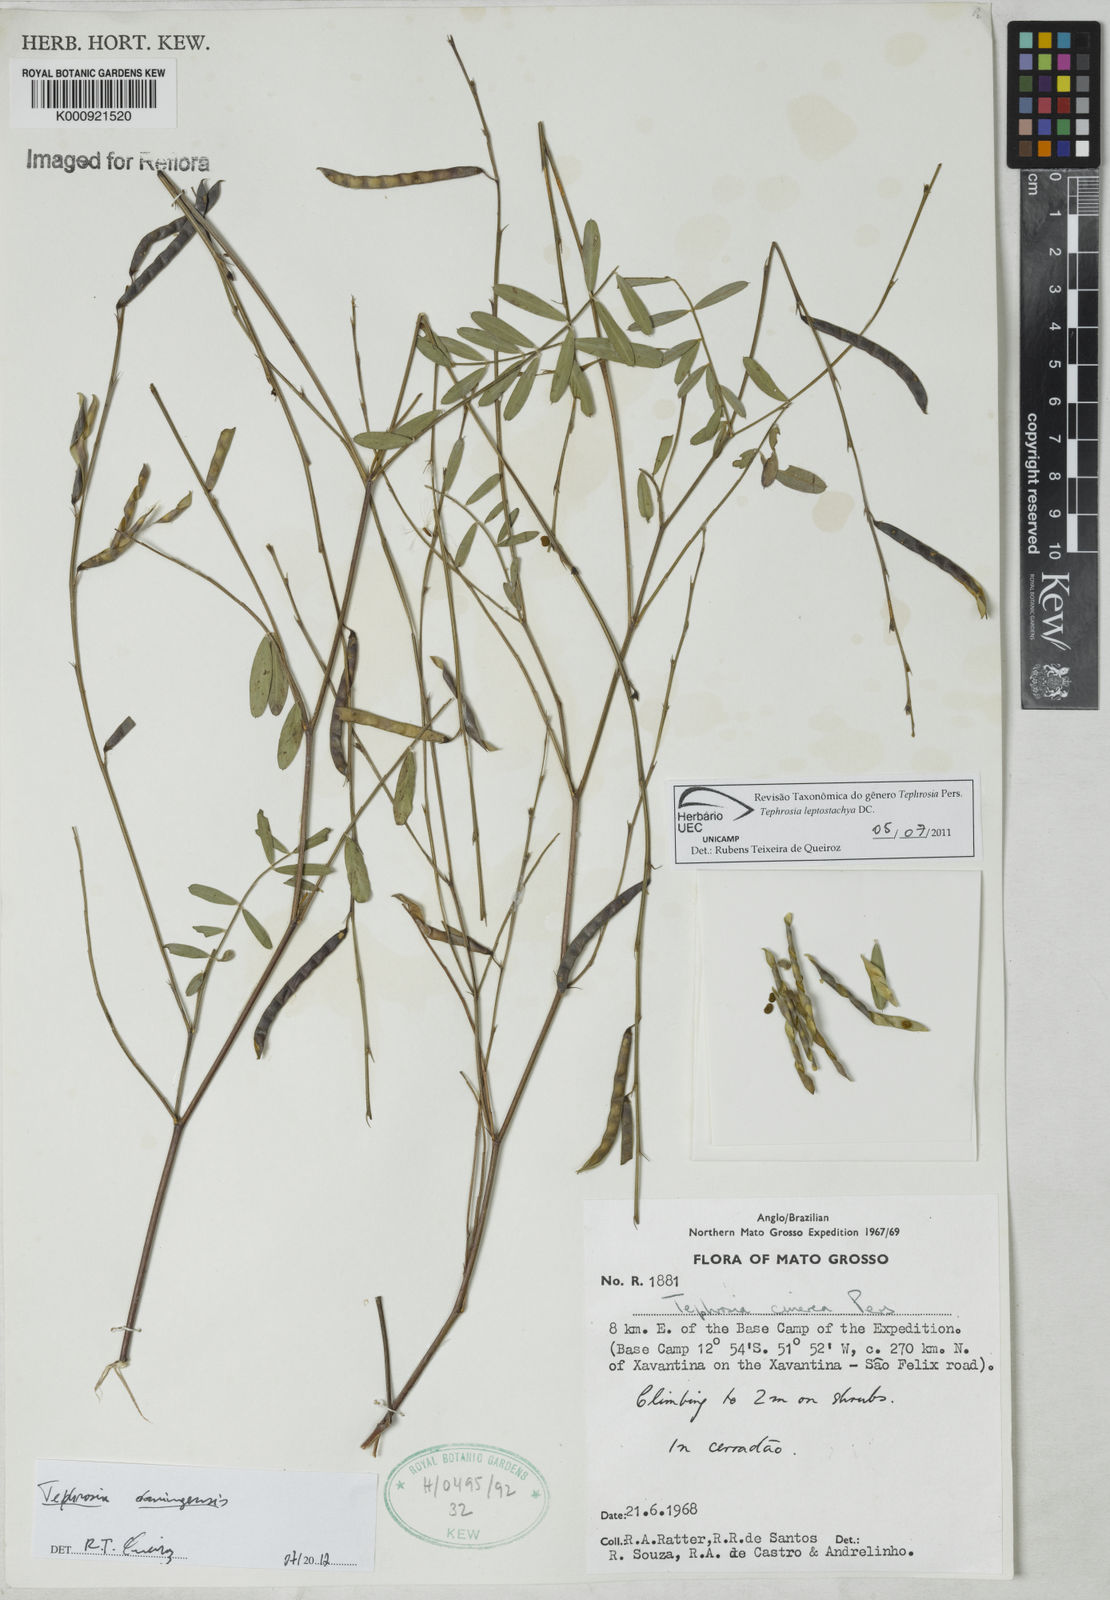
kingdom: Plantae
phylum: Tracheophyta
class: Magnoliopsida
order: Fabales
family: Fabaceae
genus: Tephrosia
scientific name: Tephrosia domingensis
